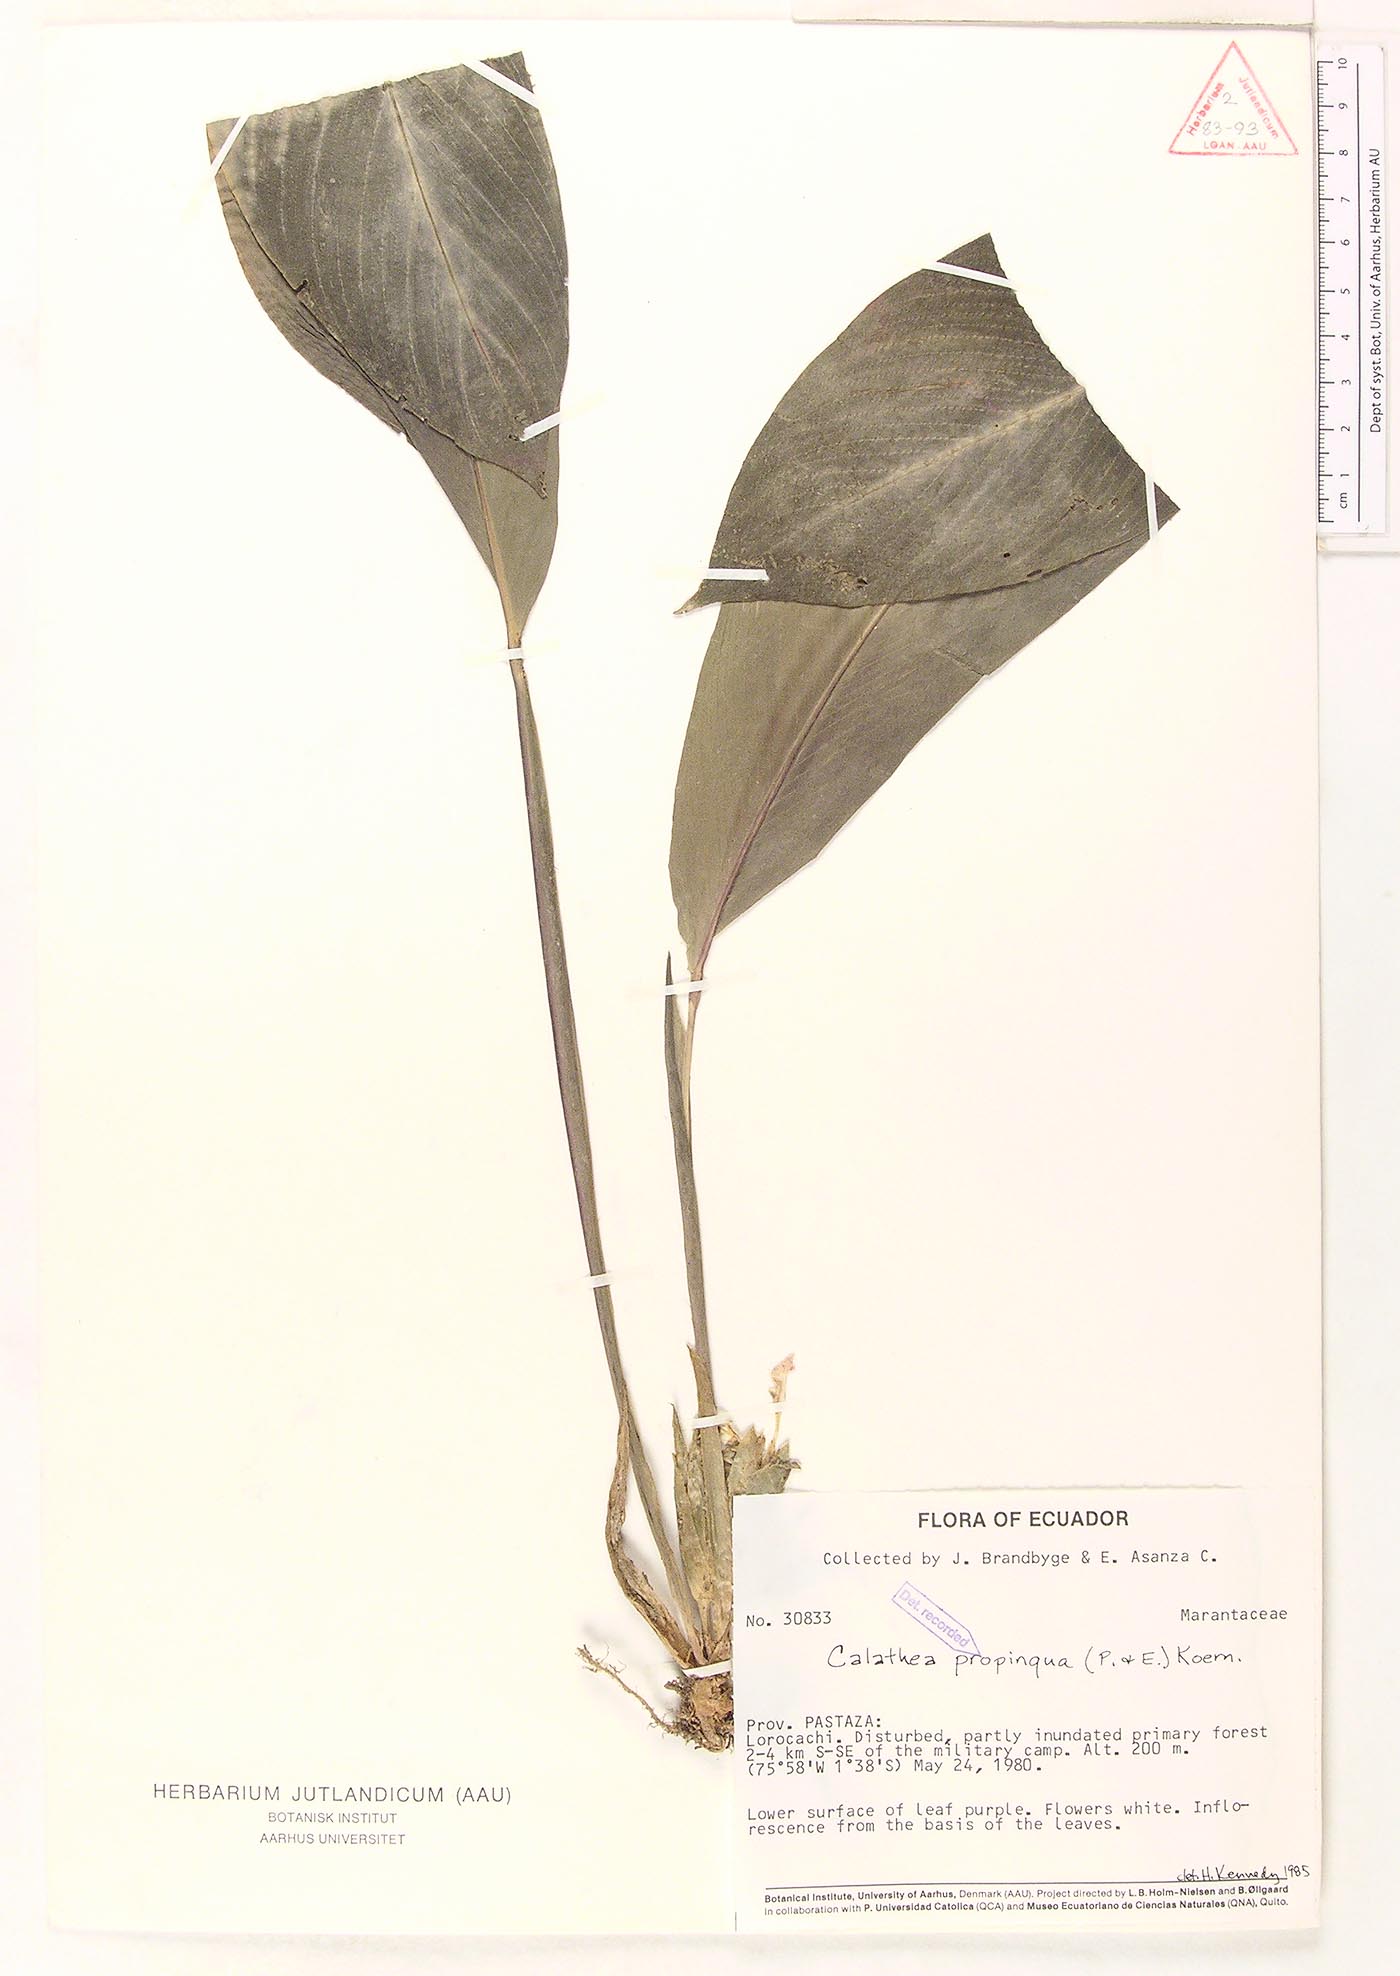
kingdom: Plantae
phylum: Tracheophyta
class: Liliopsida
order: Zingiberales
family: Marantaceae
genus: Goeppertia
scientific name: Goeppertia propinqua
